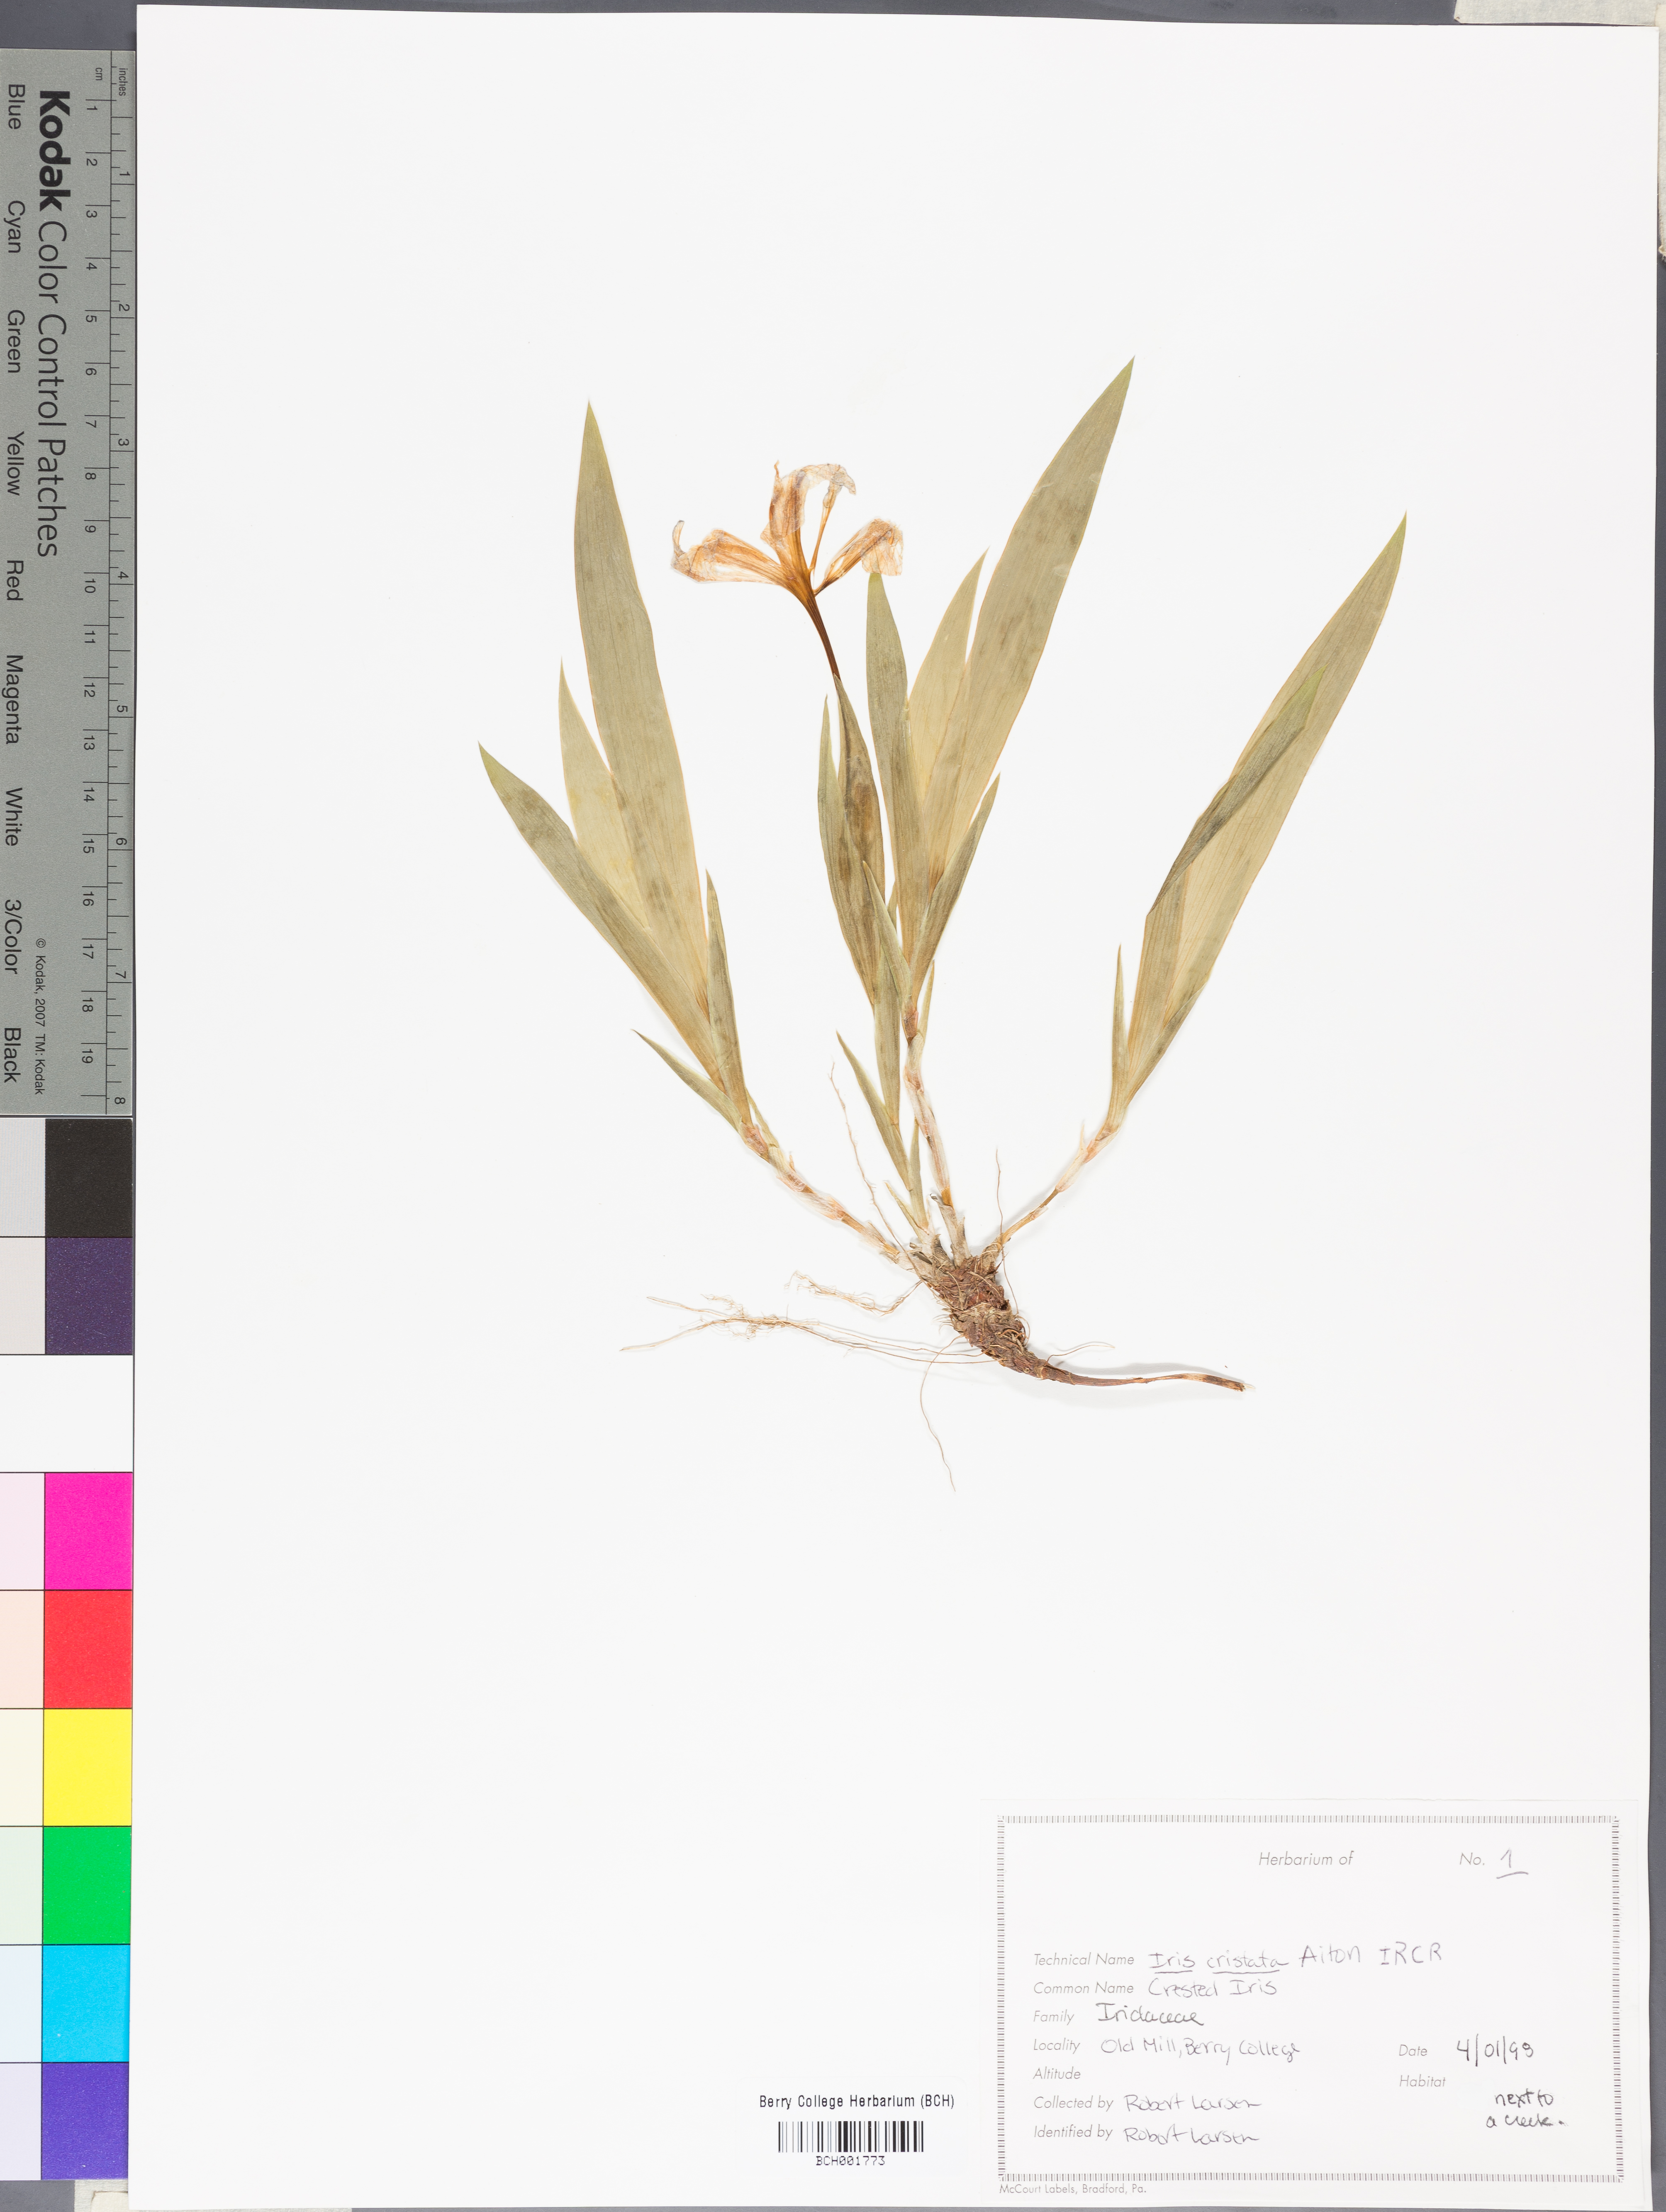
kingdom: Plantae
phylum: Tracheophyta
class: Liliopsida
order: Asparagales
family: Iridaceae
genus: Iris
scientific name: Iris cristata
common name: Crested iris
